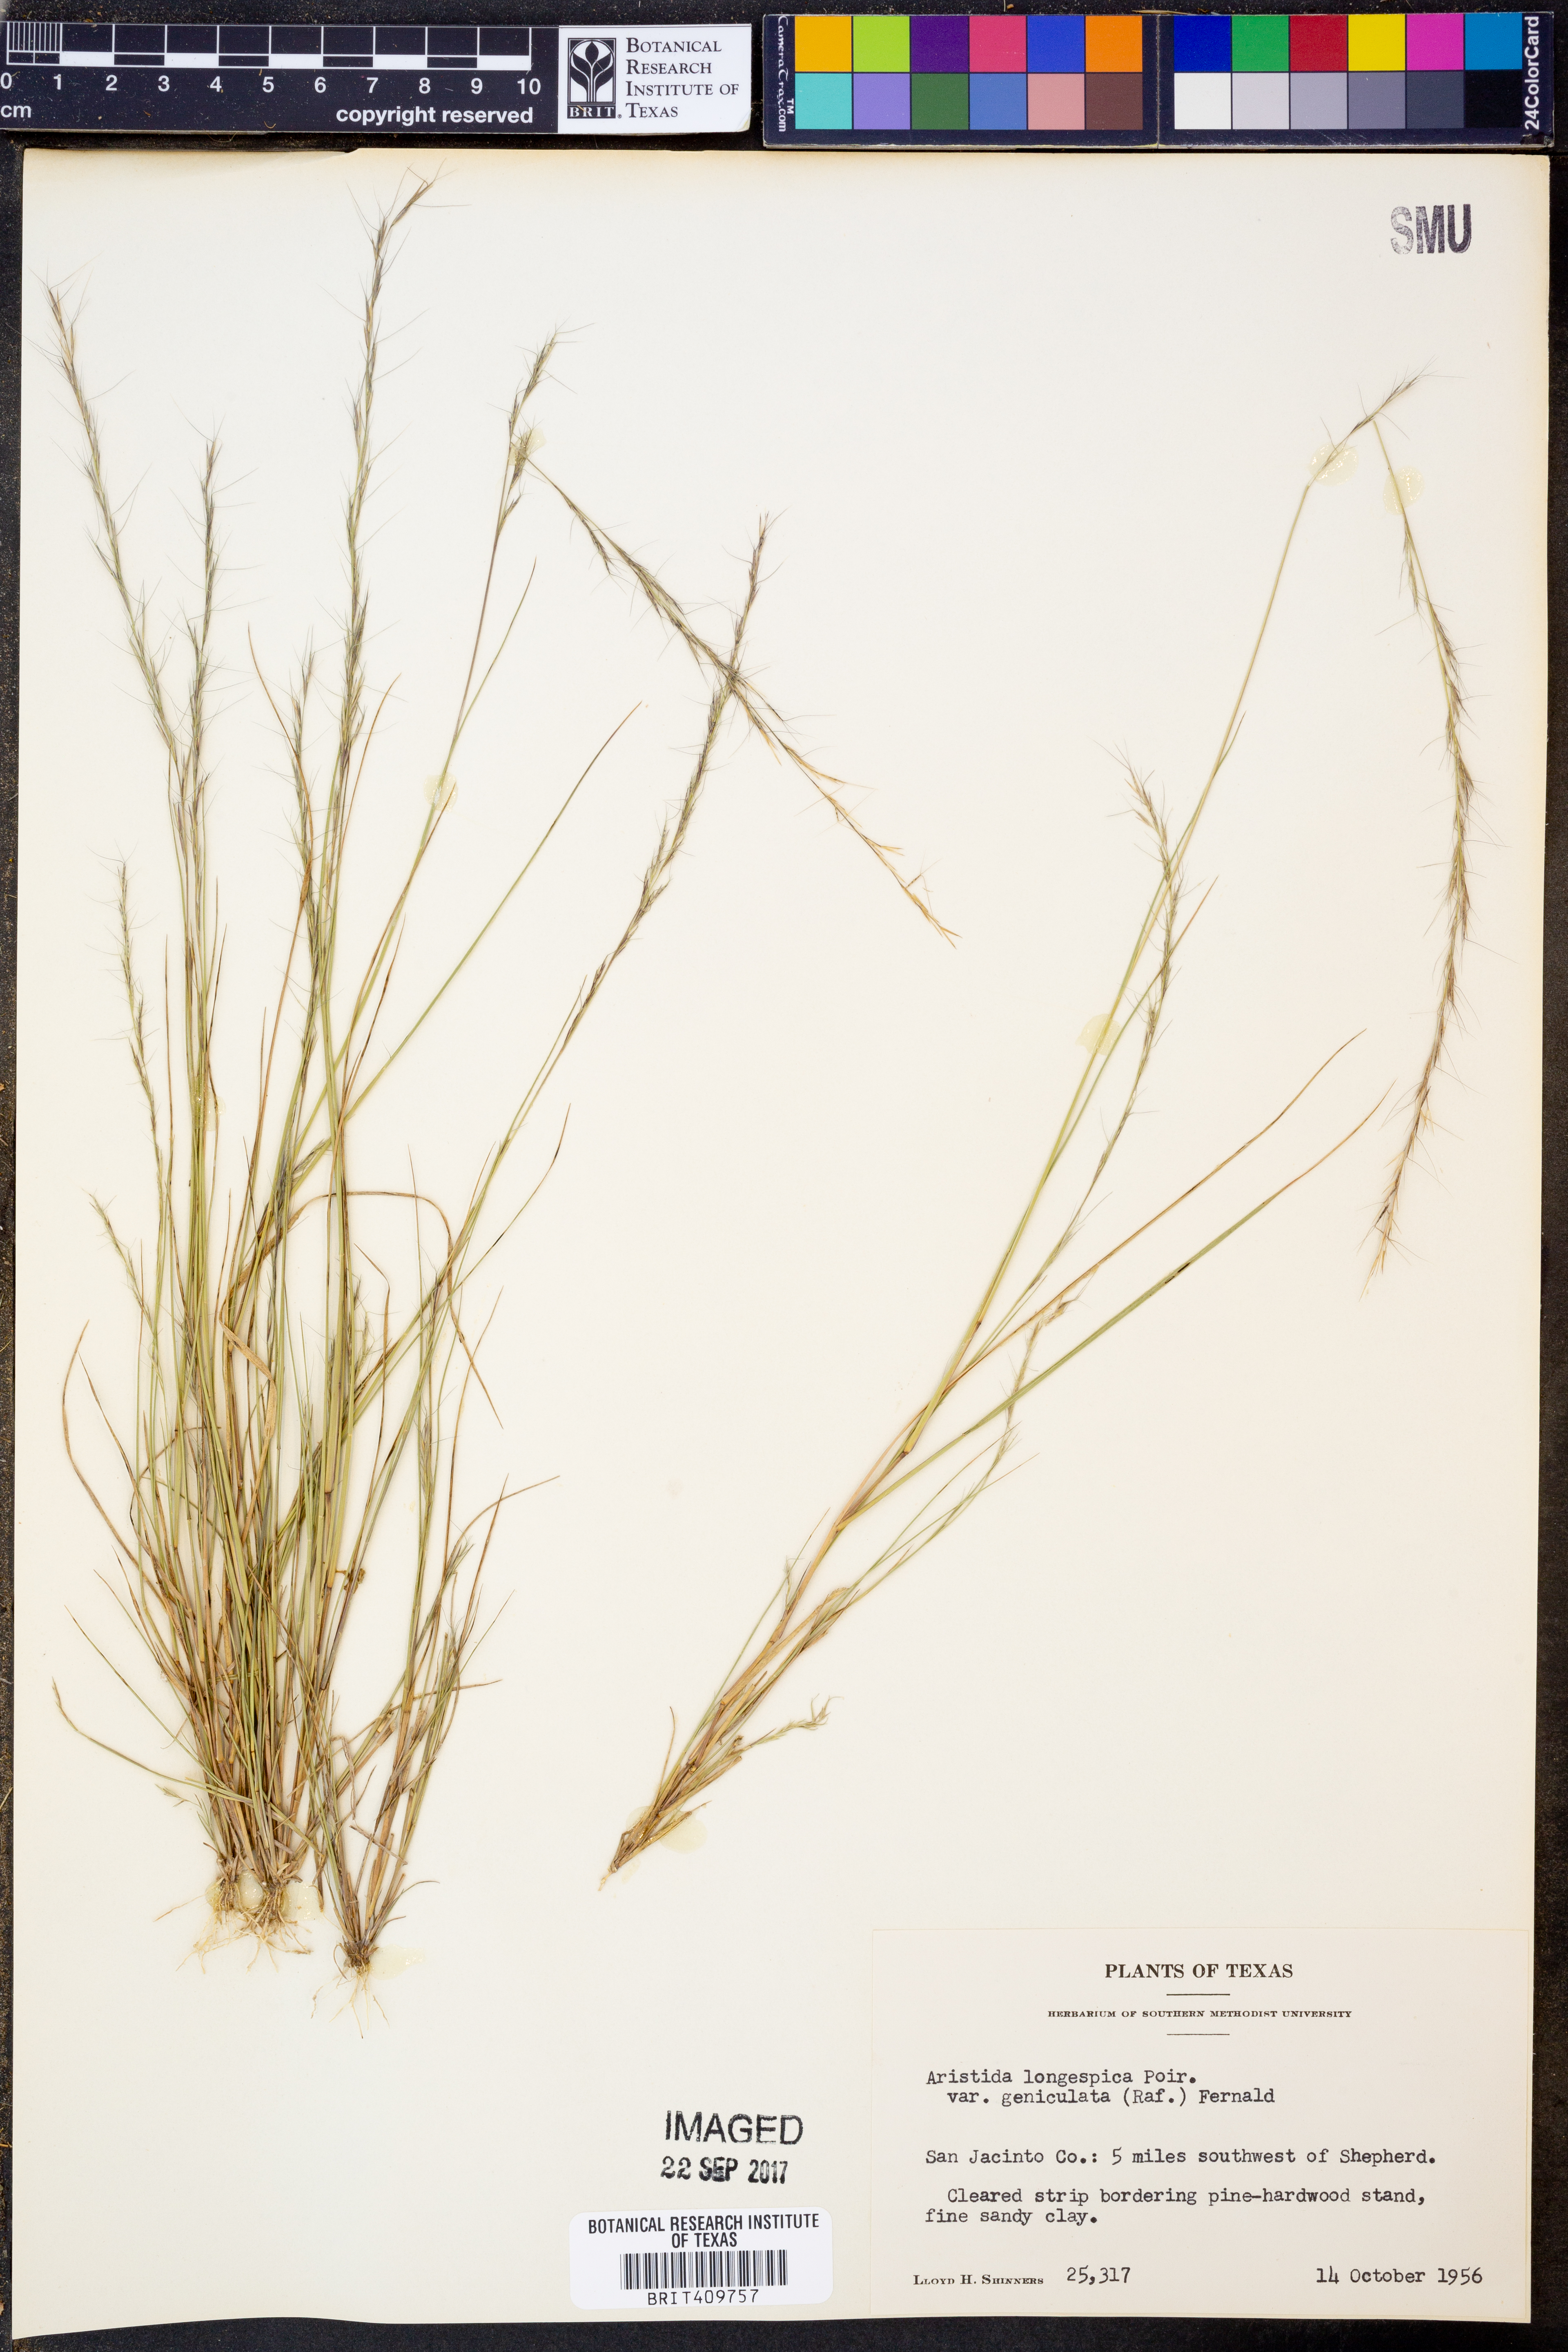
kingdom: Plantae
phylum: Tracheophyta
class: Liliopsida
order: Poales
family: Poaceae
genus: Aristida
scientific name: Aristida longespica
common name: Long-spiked triple-awned grass
